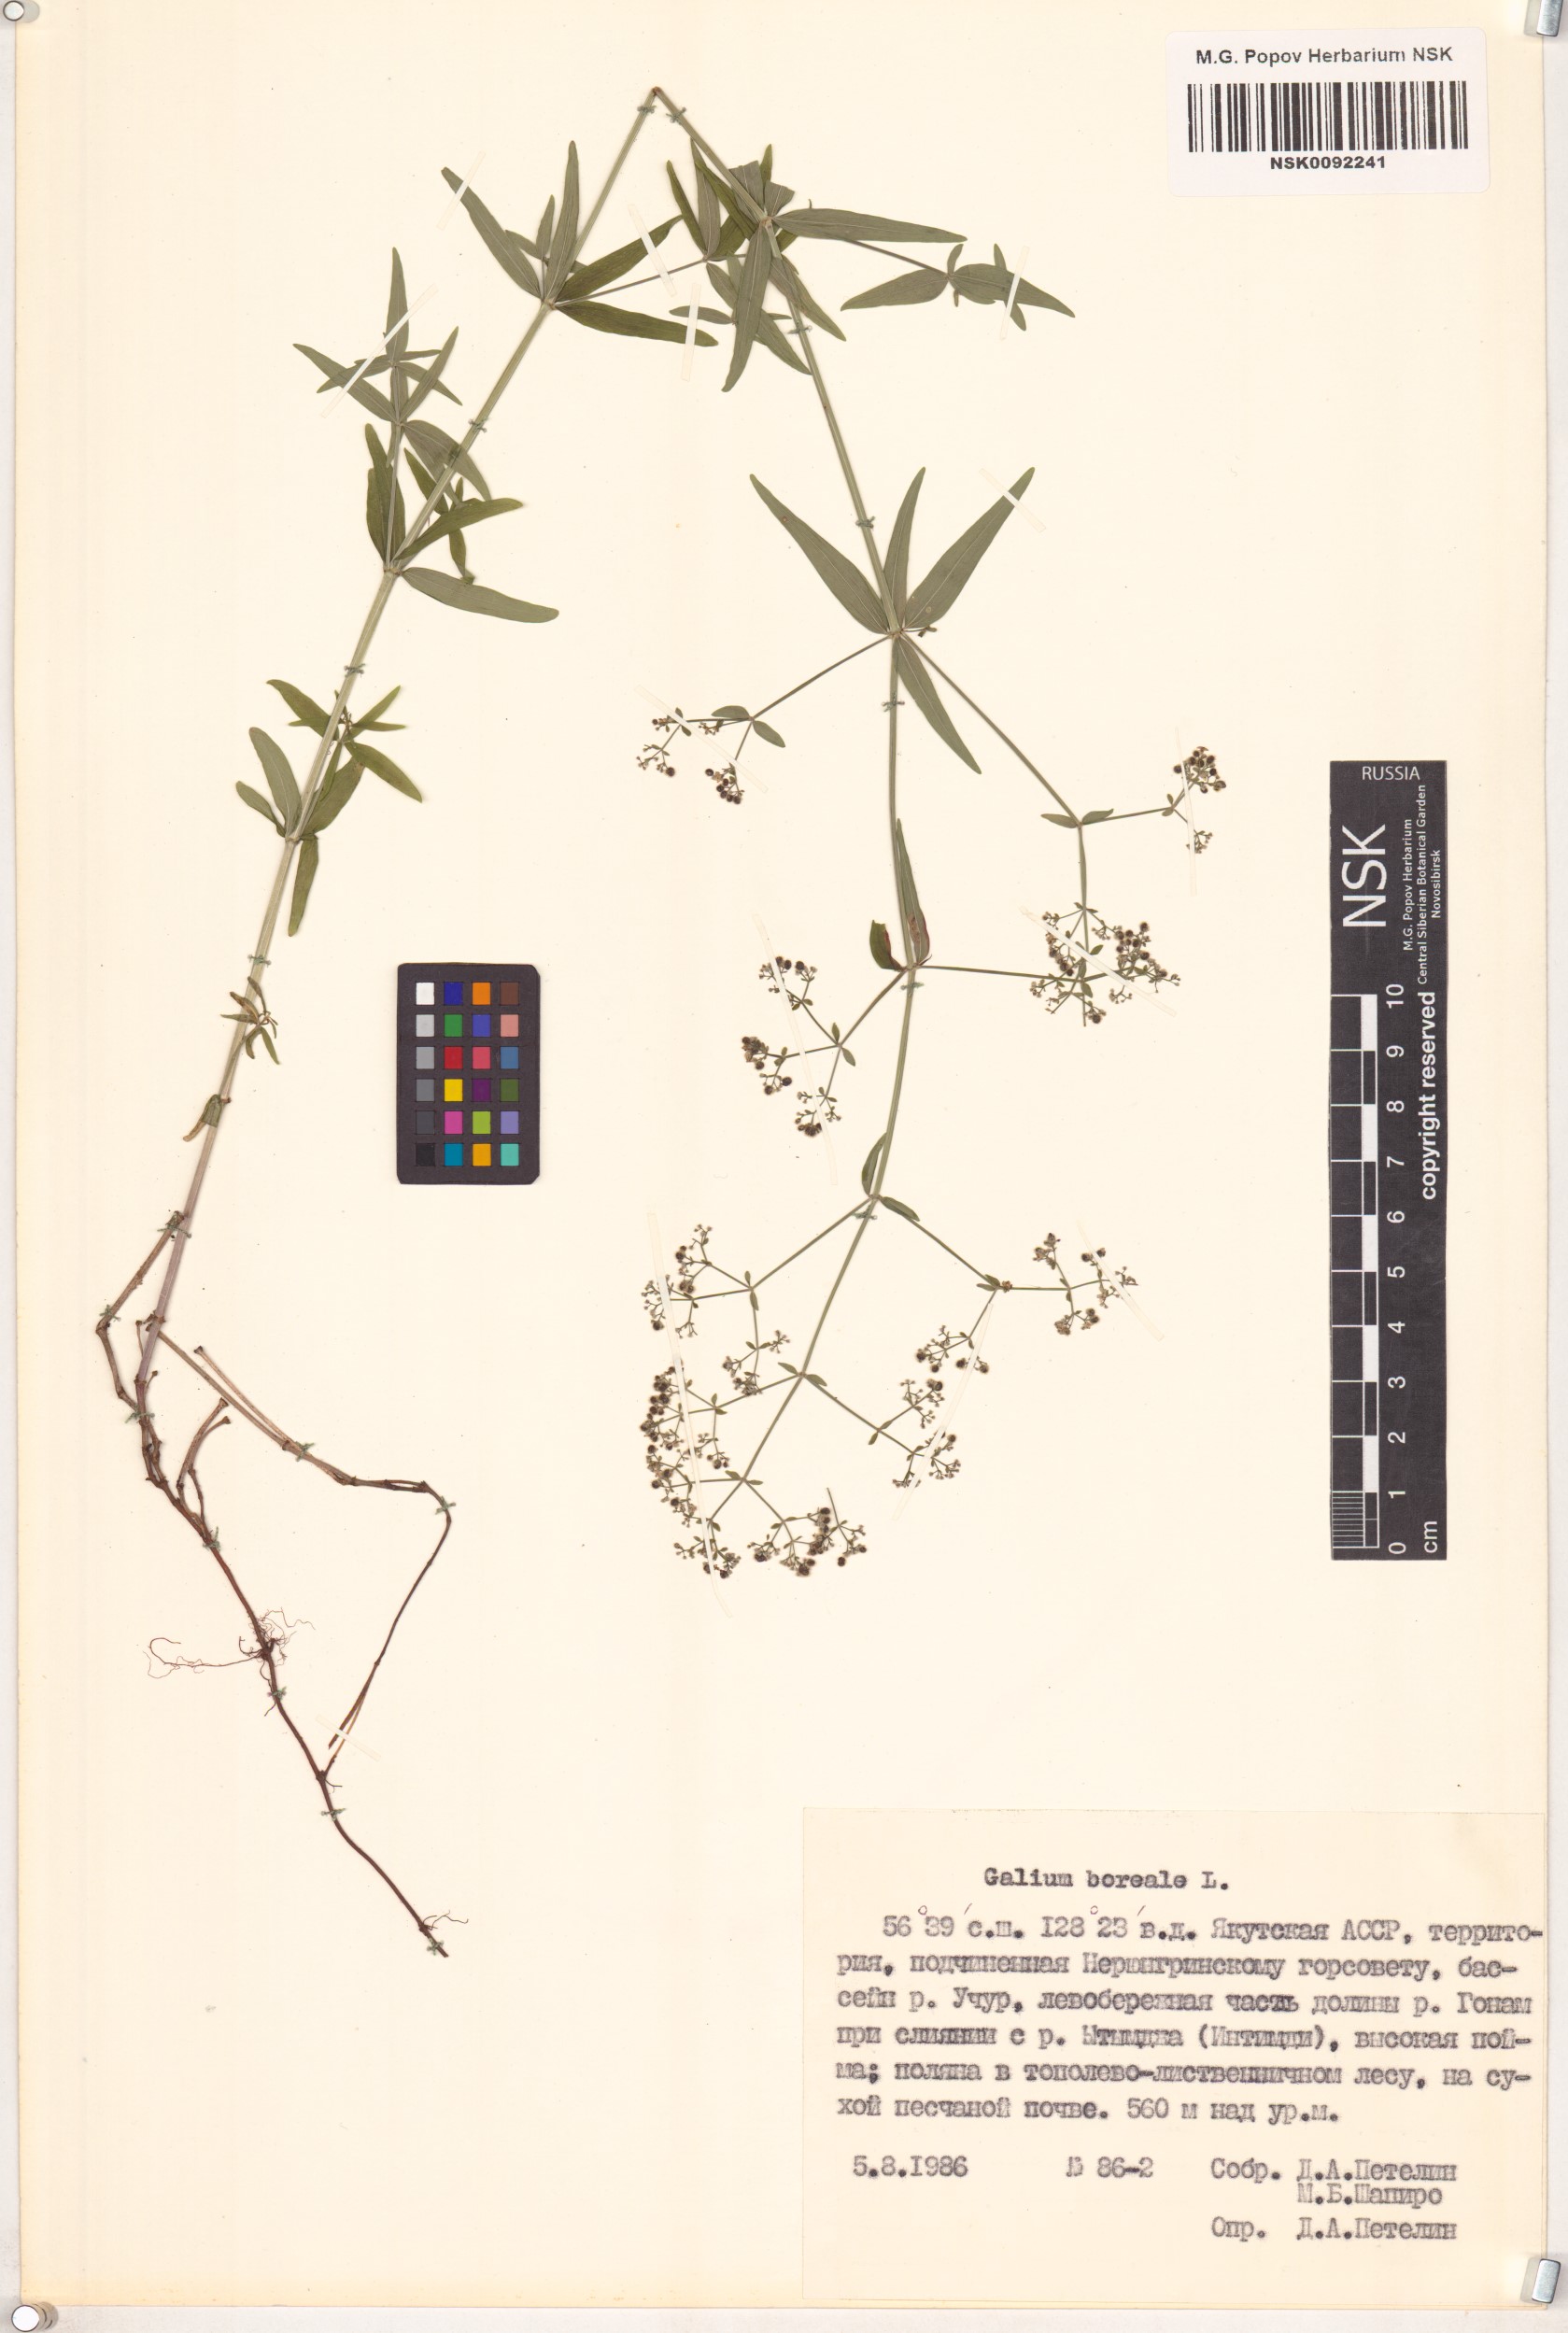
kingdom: Plantae
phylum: Tracheophyta
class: Magnoliopsida
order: Gentianales
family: Rubiaceae
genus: Galium
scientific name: Galium boreale
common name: Northern bedstraw
